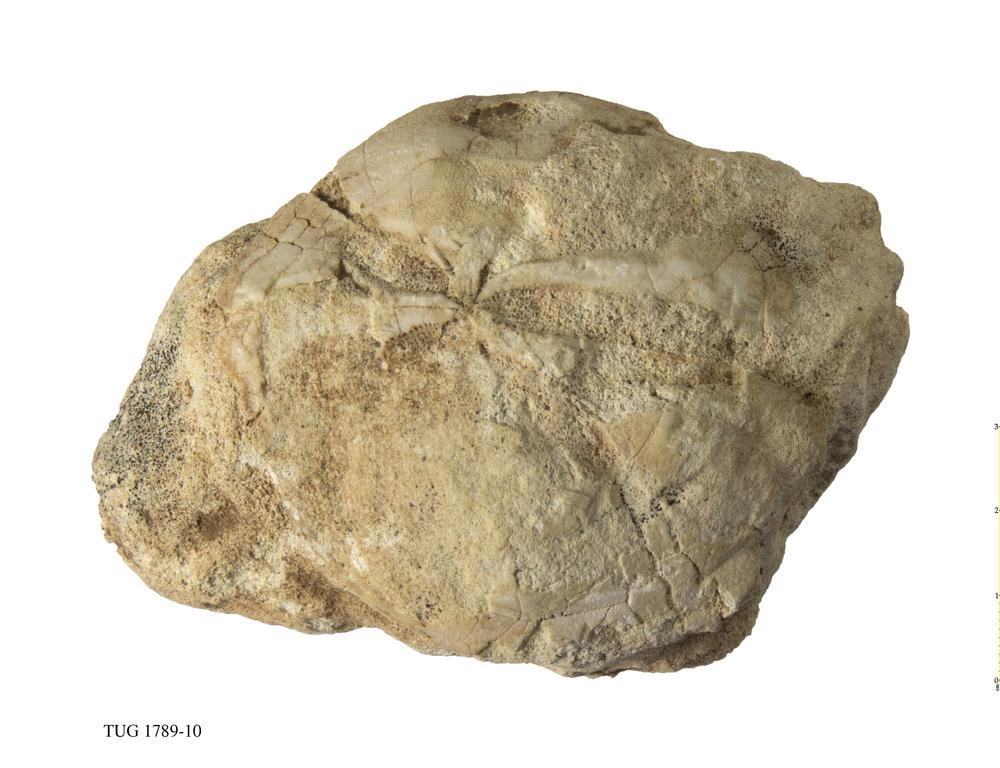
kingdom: Animalia
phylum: Echinodermata
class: Echinoidea
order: Clypeasteroida
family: Clypeasteridae
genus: Clypeaster
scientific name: Clypeaster
